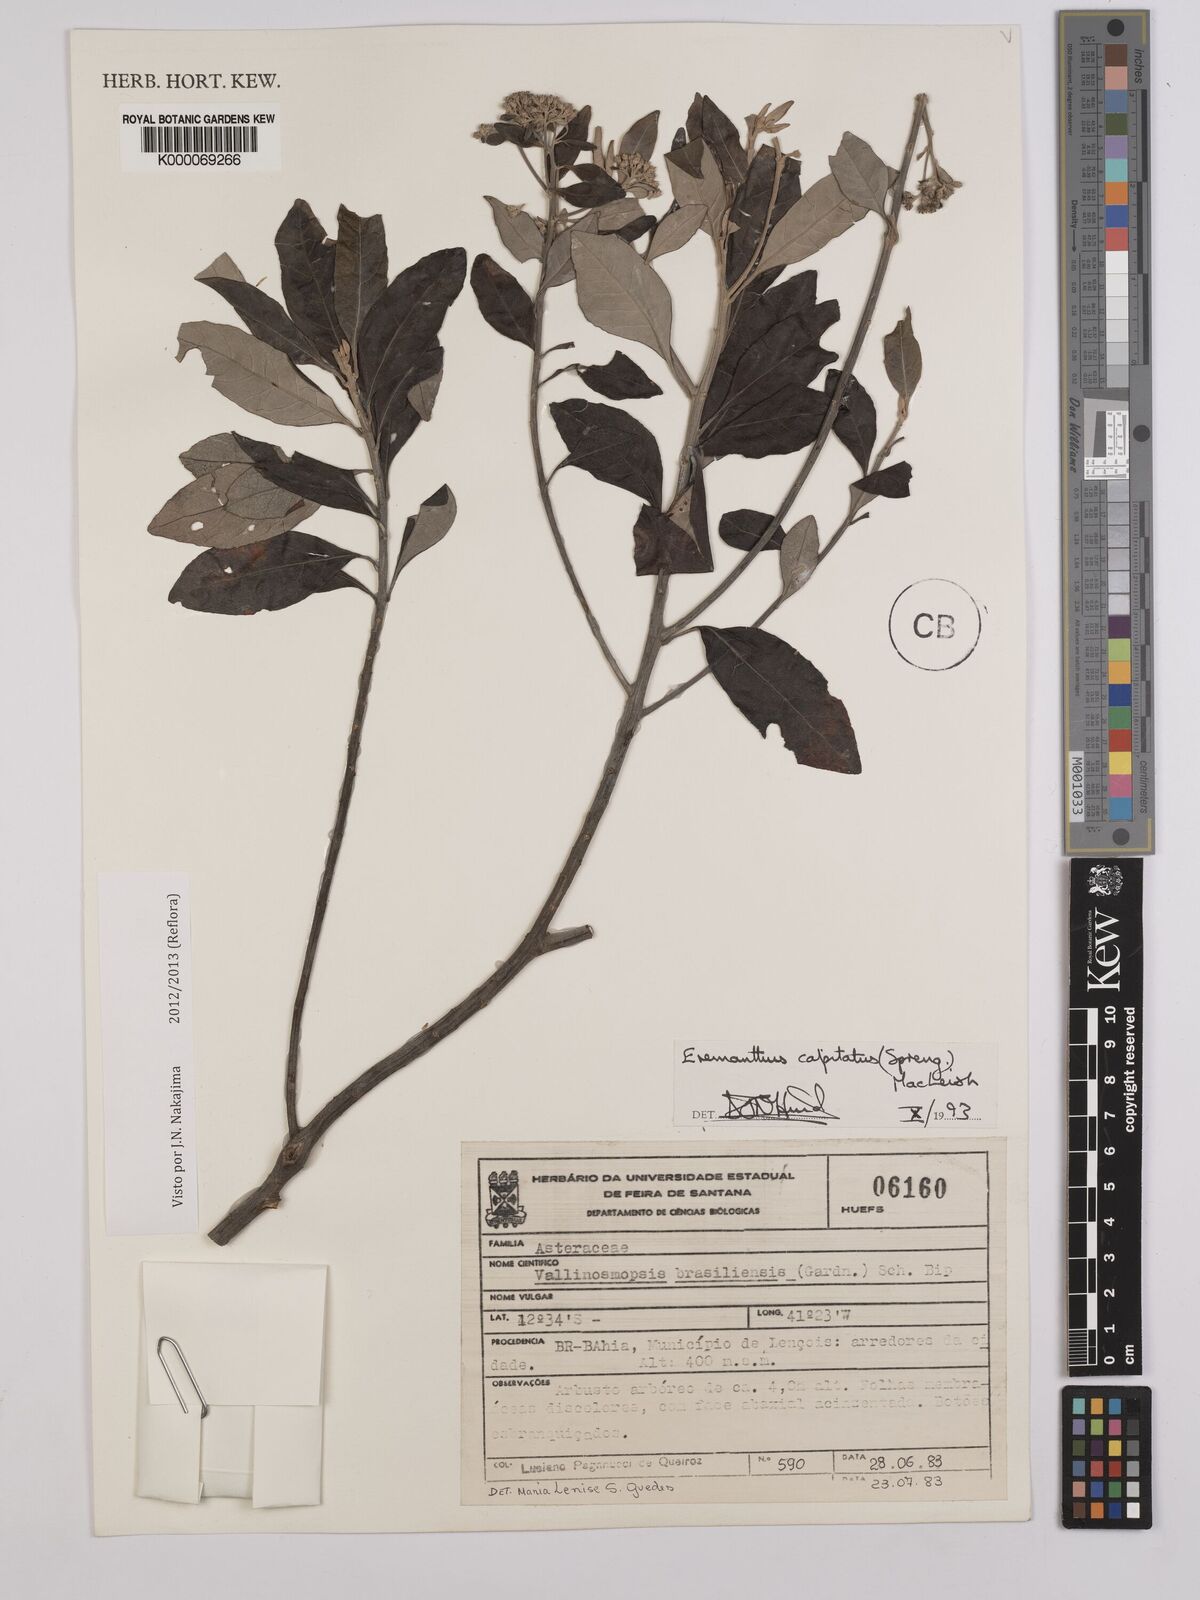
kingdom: Plantae
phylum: Tracheophyta
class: Magnoliopsida
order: Asterales
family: Asteraceae
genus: Eremanthus
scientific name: Eremanthus capitatus
